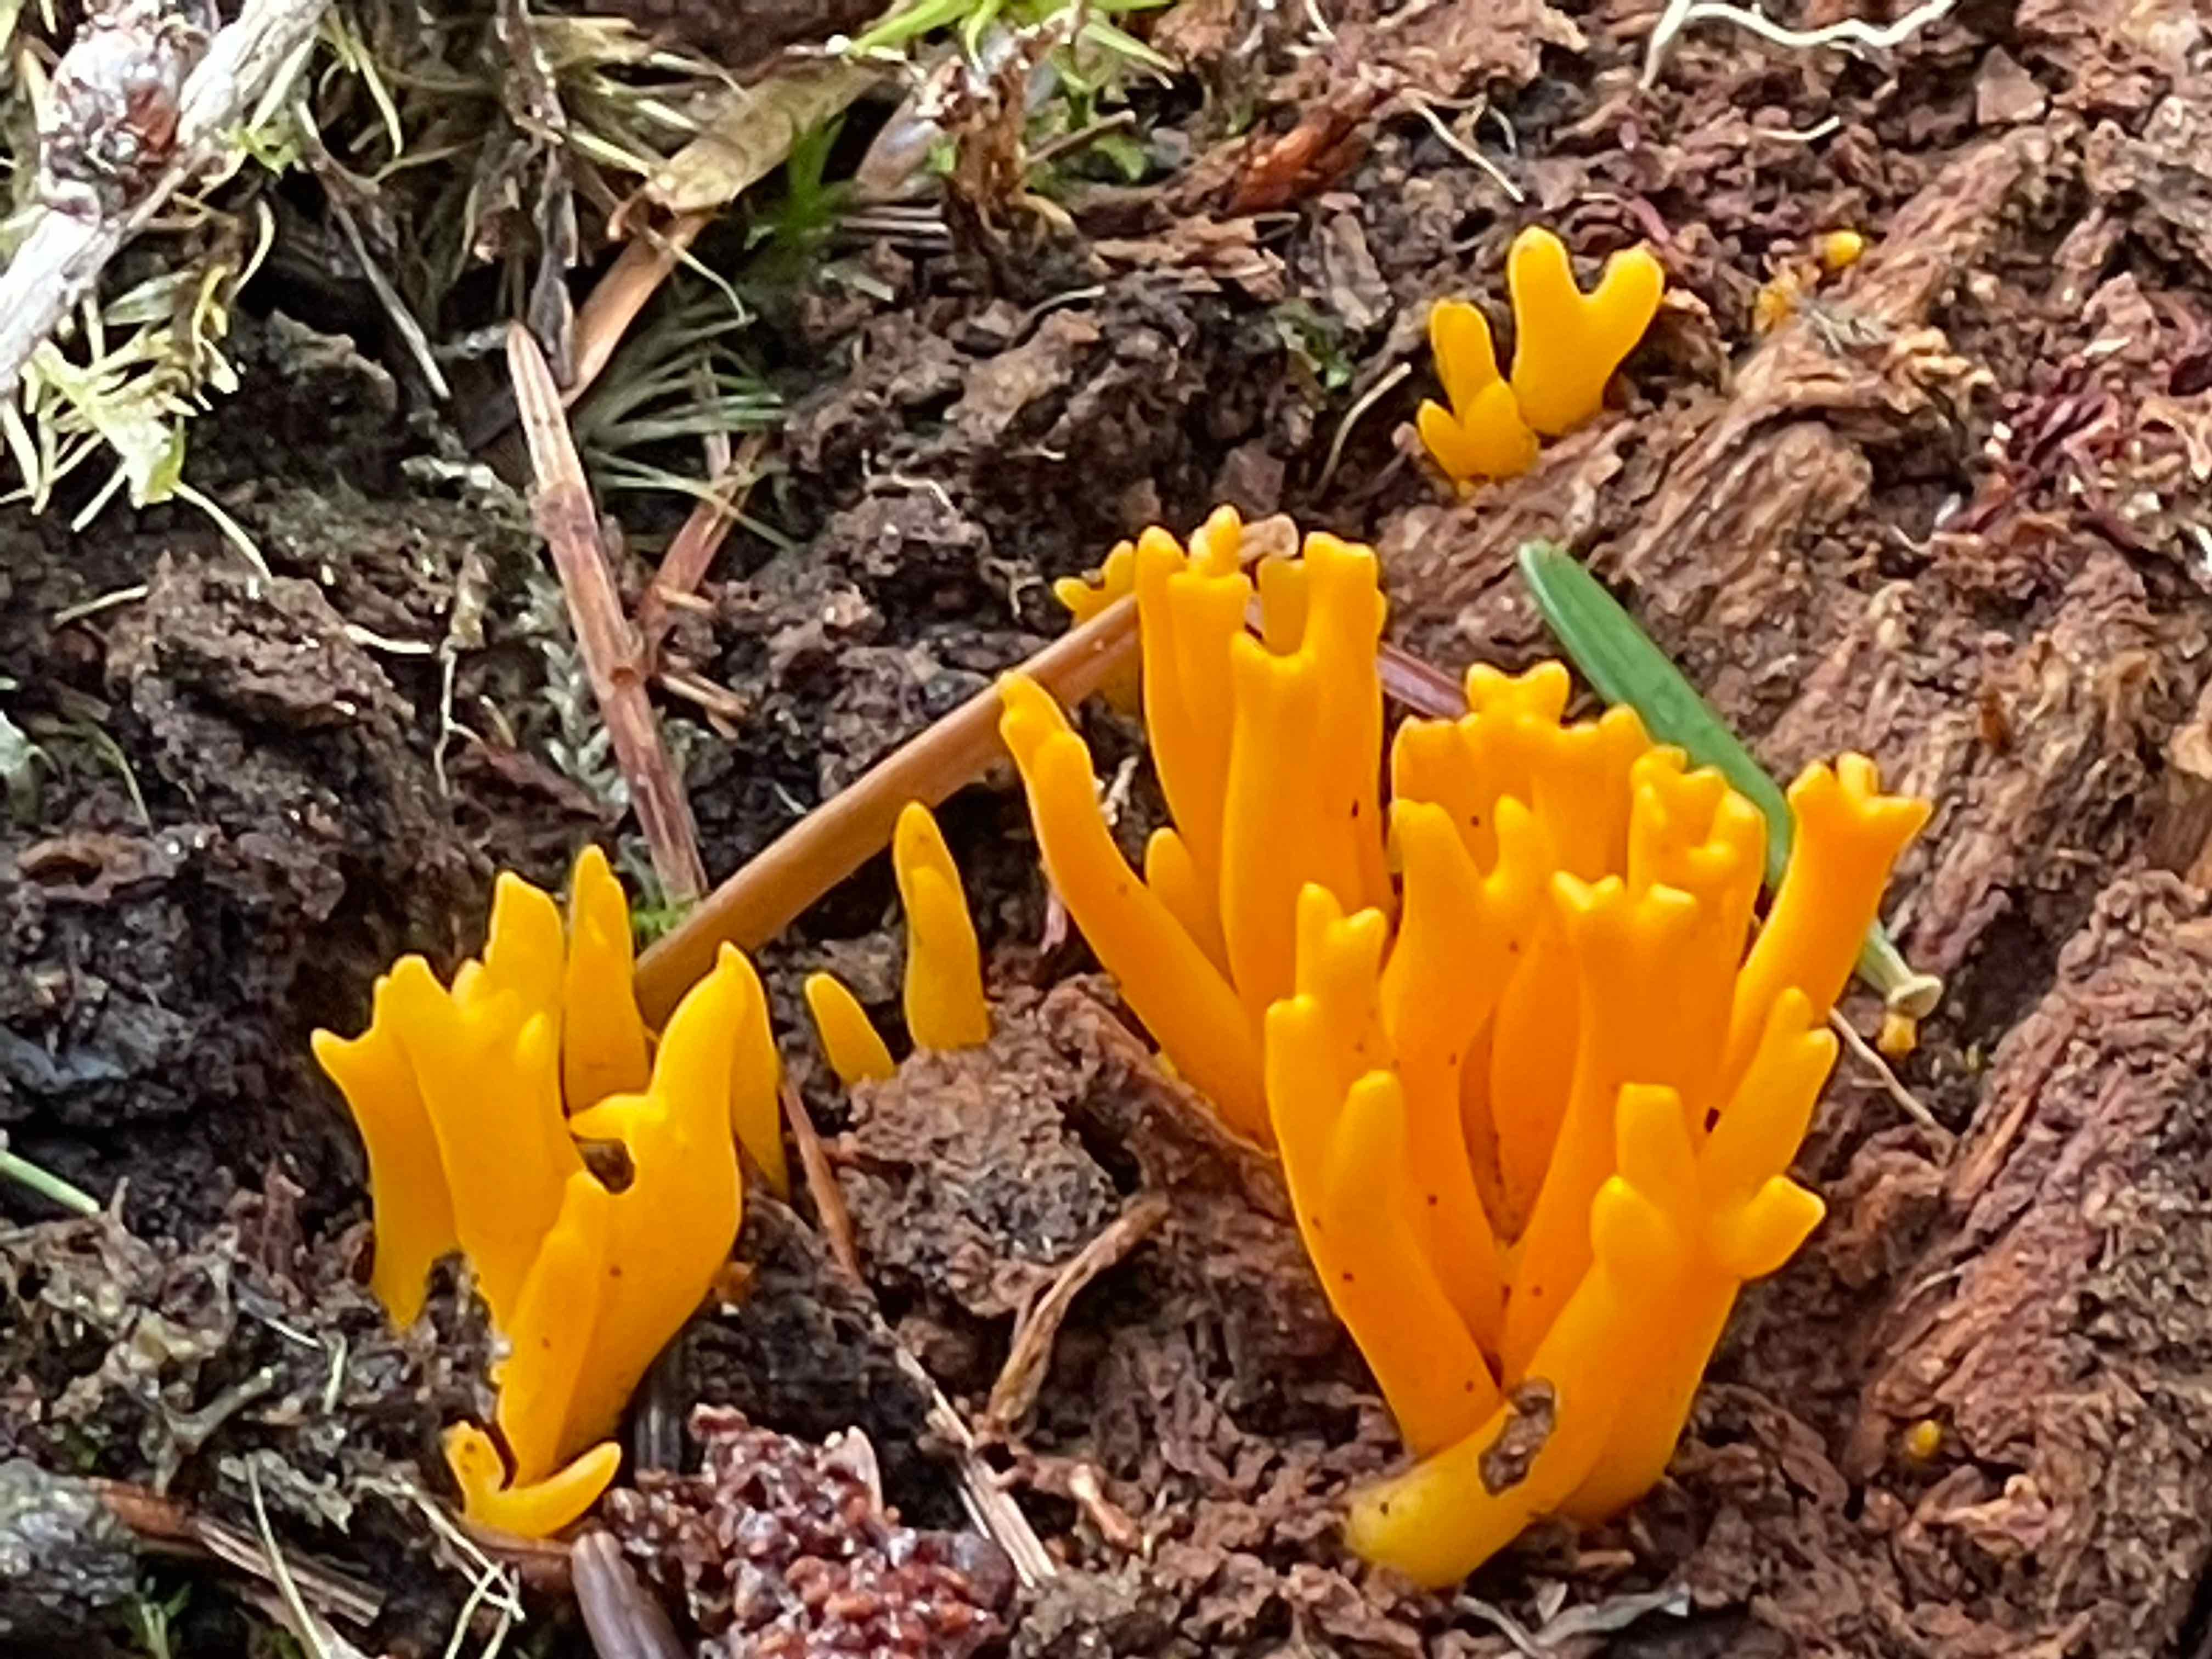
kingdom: Fungi
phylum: Basidiomycota
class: Dacrymycetes
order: Dacrymycetales
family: Dacrymycetaceae
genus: Calocera
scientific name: Calocera viscosa
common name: almindelig guldgaffel
